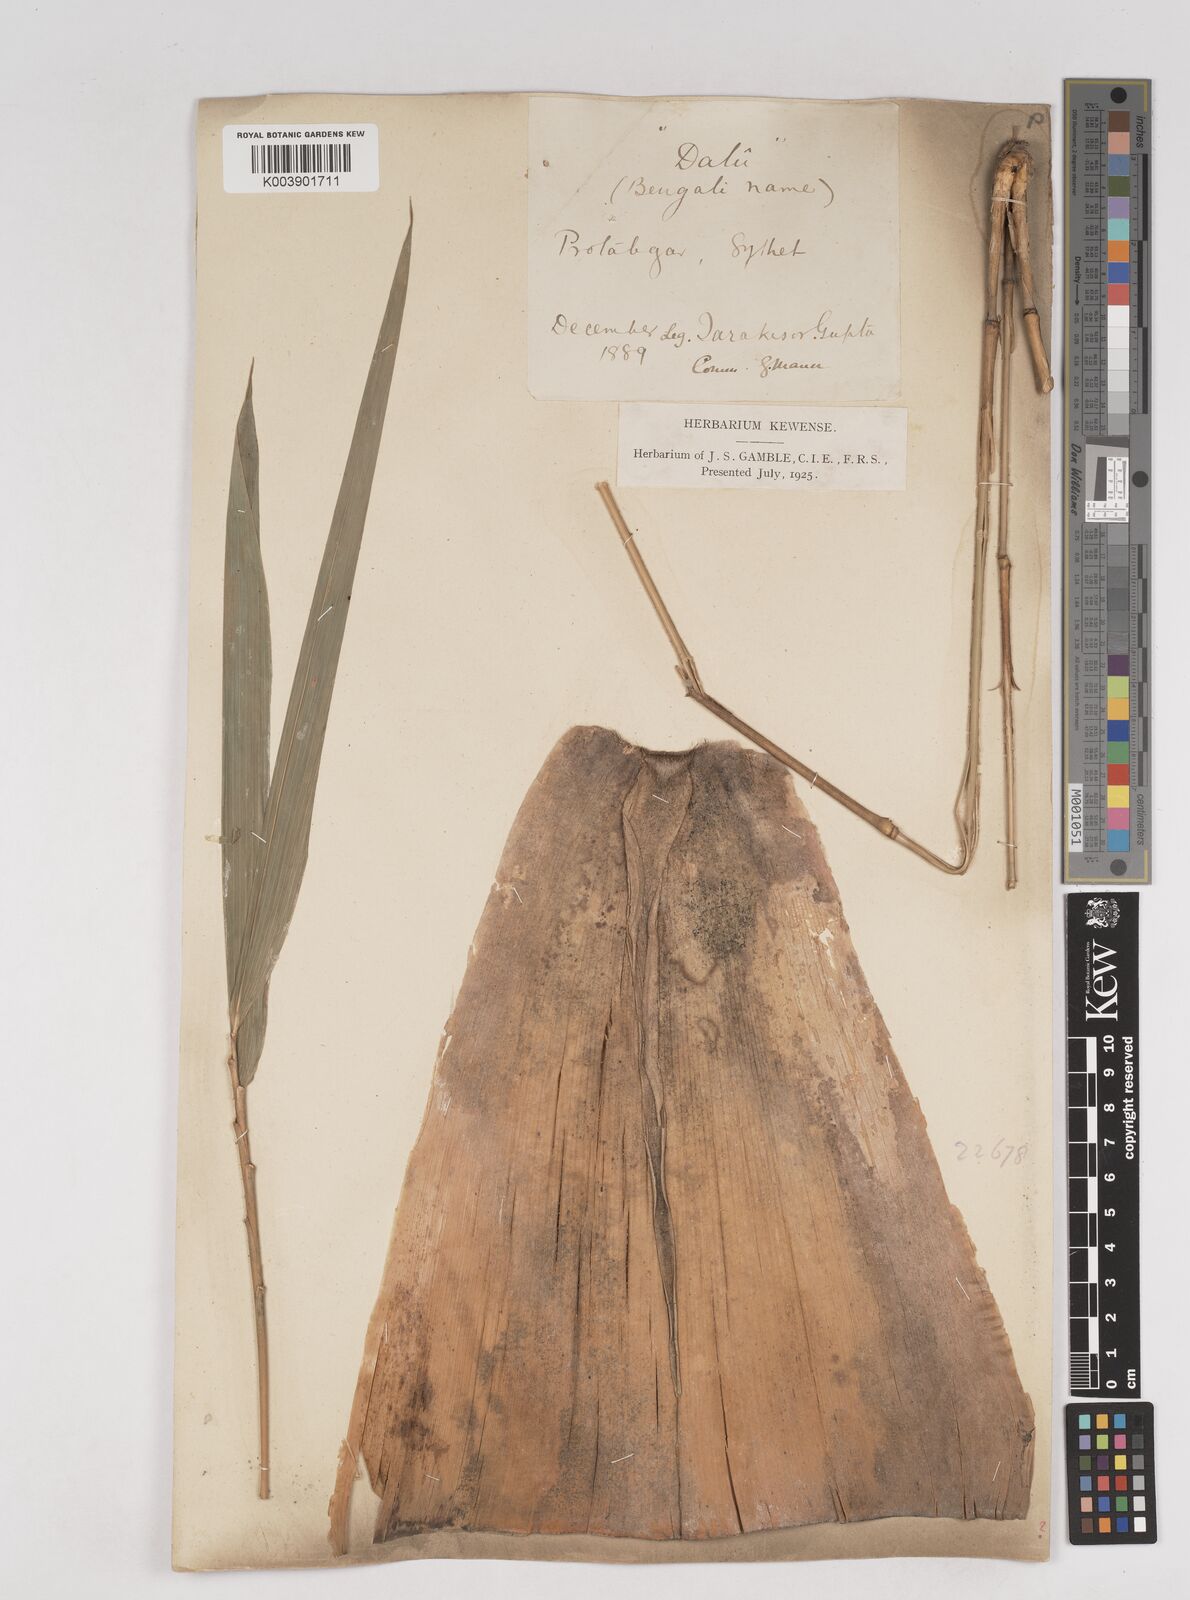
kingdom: Plantae
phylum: Tracheophyta
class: Liliopsida
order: Poales
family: Poaceae
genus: Schizostachyum
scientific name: Schizostachyum dullooa
